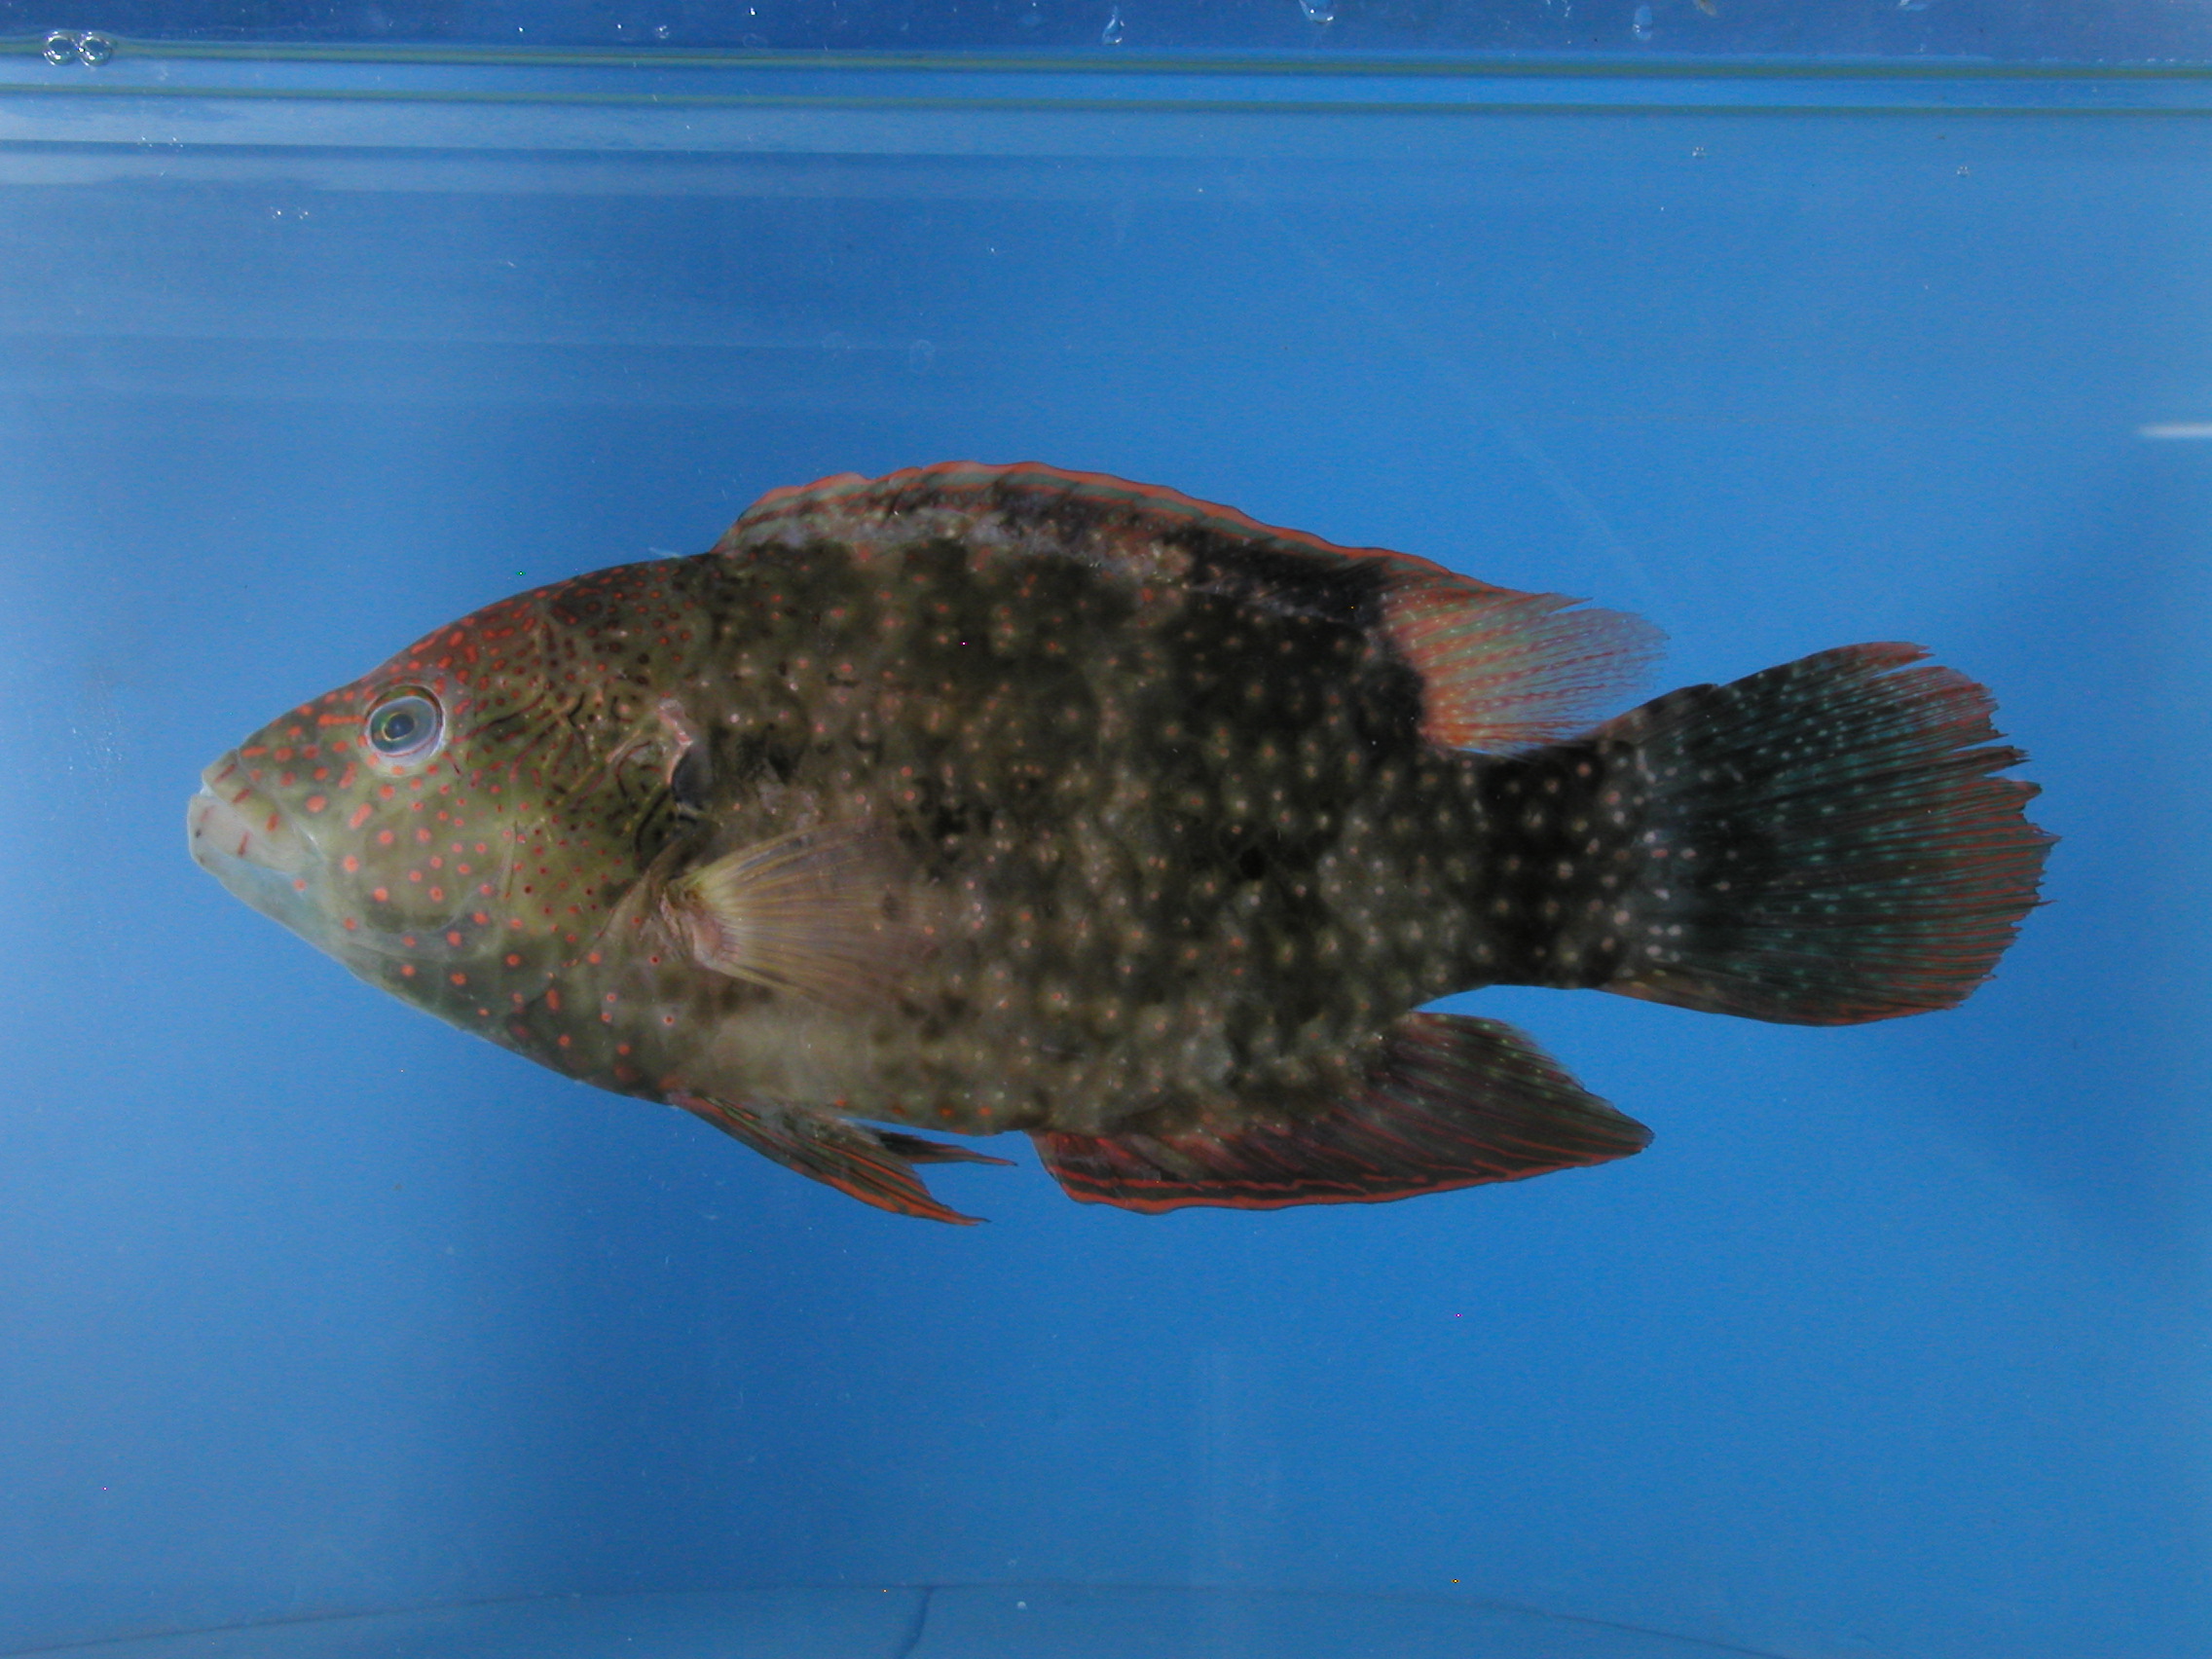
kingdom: Animalia
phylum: Chordata
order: Perciformes
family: Labridae
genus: Cheilinus
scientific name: Cheilinus chlorourus
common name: Floral wrasse
